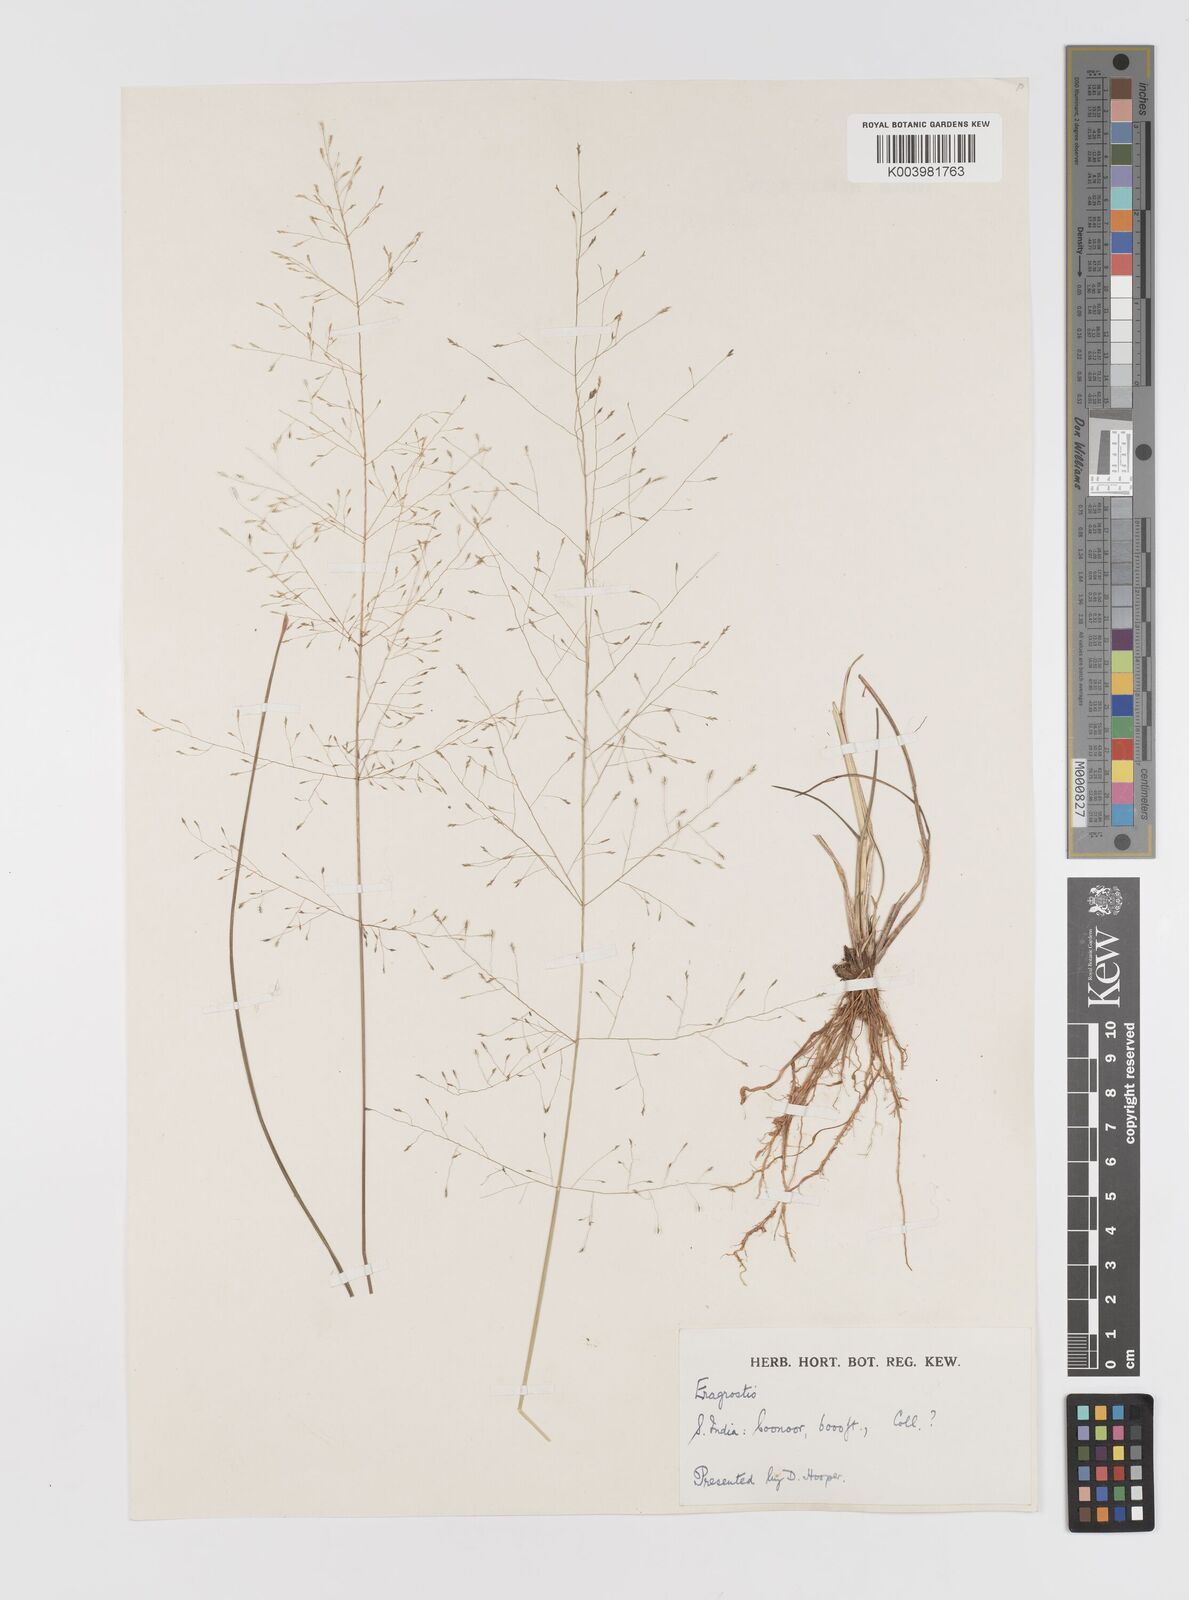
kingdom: Plantae
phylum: Tracheophyta
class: Liliopsida
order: Poales
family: Poaceae
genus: Eragrostis
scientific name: Eragrostis nigra
